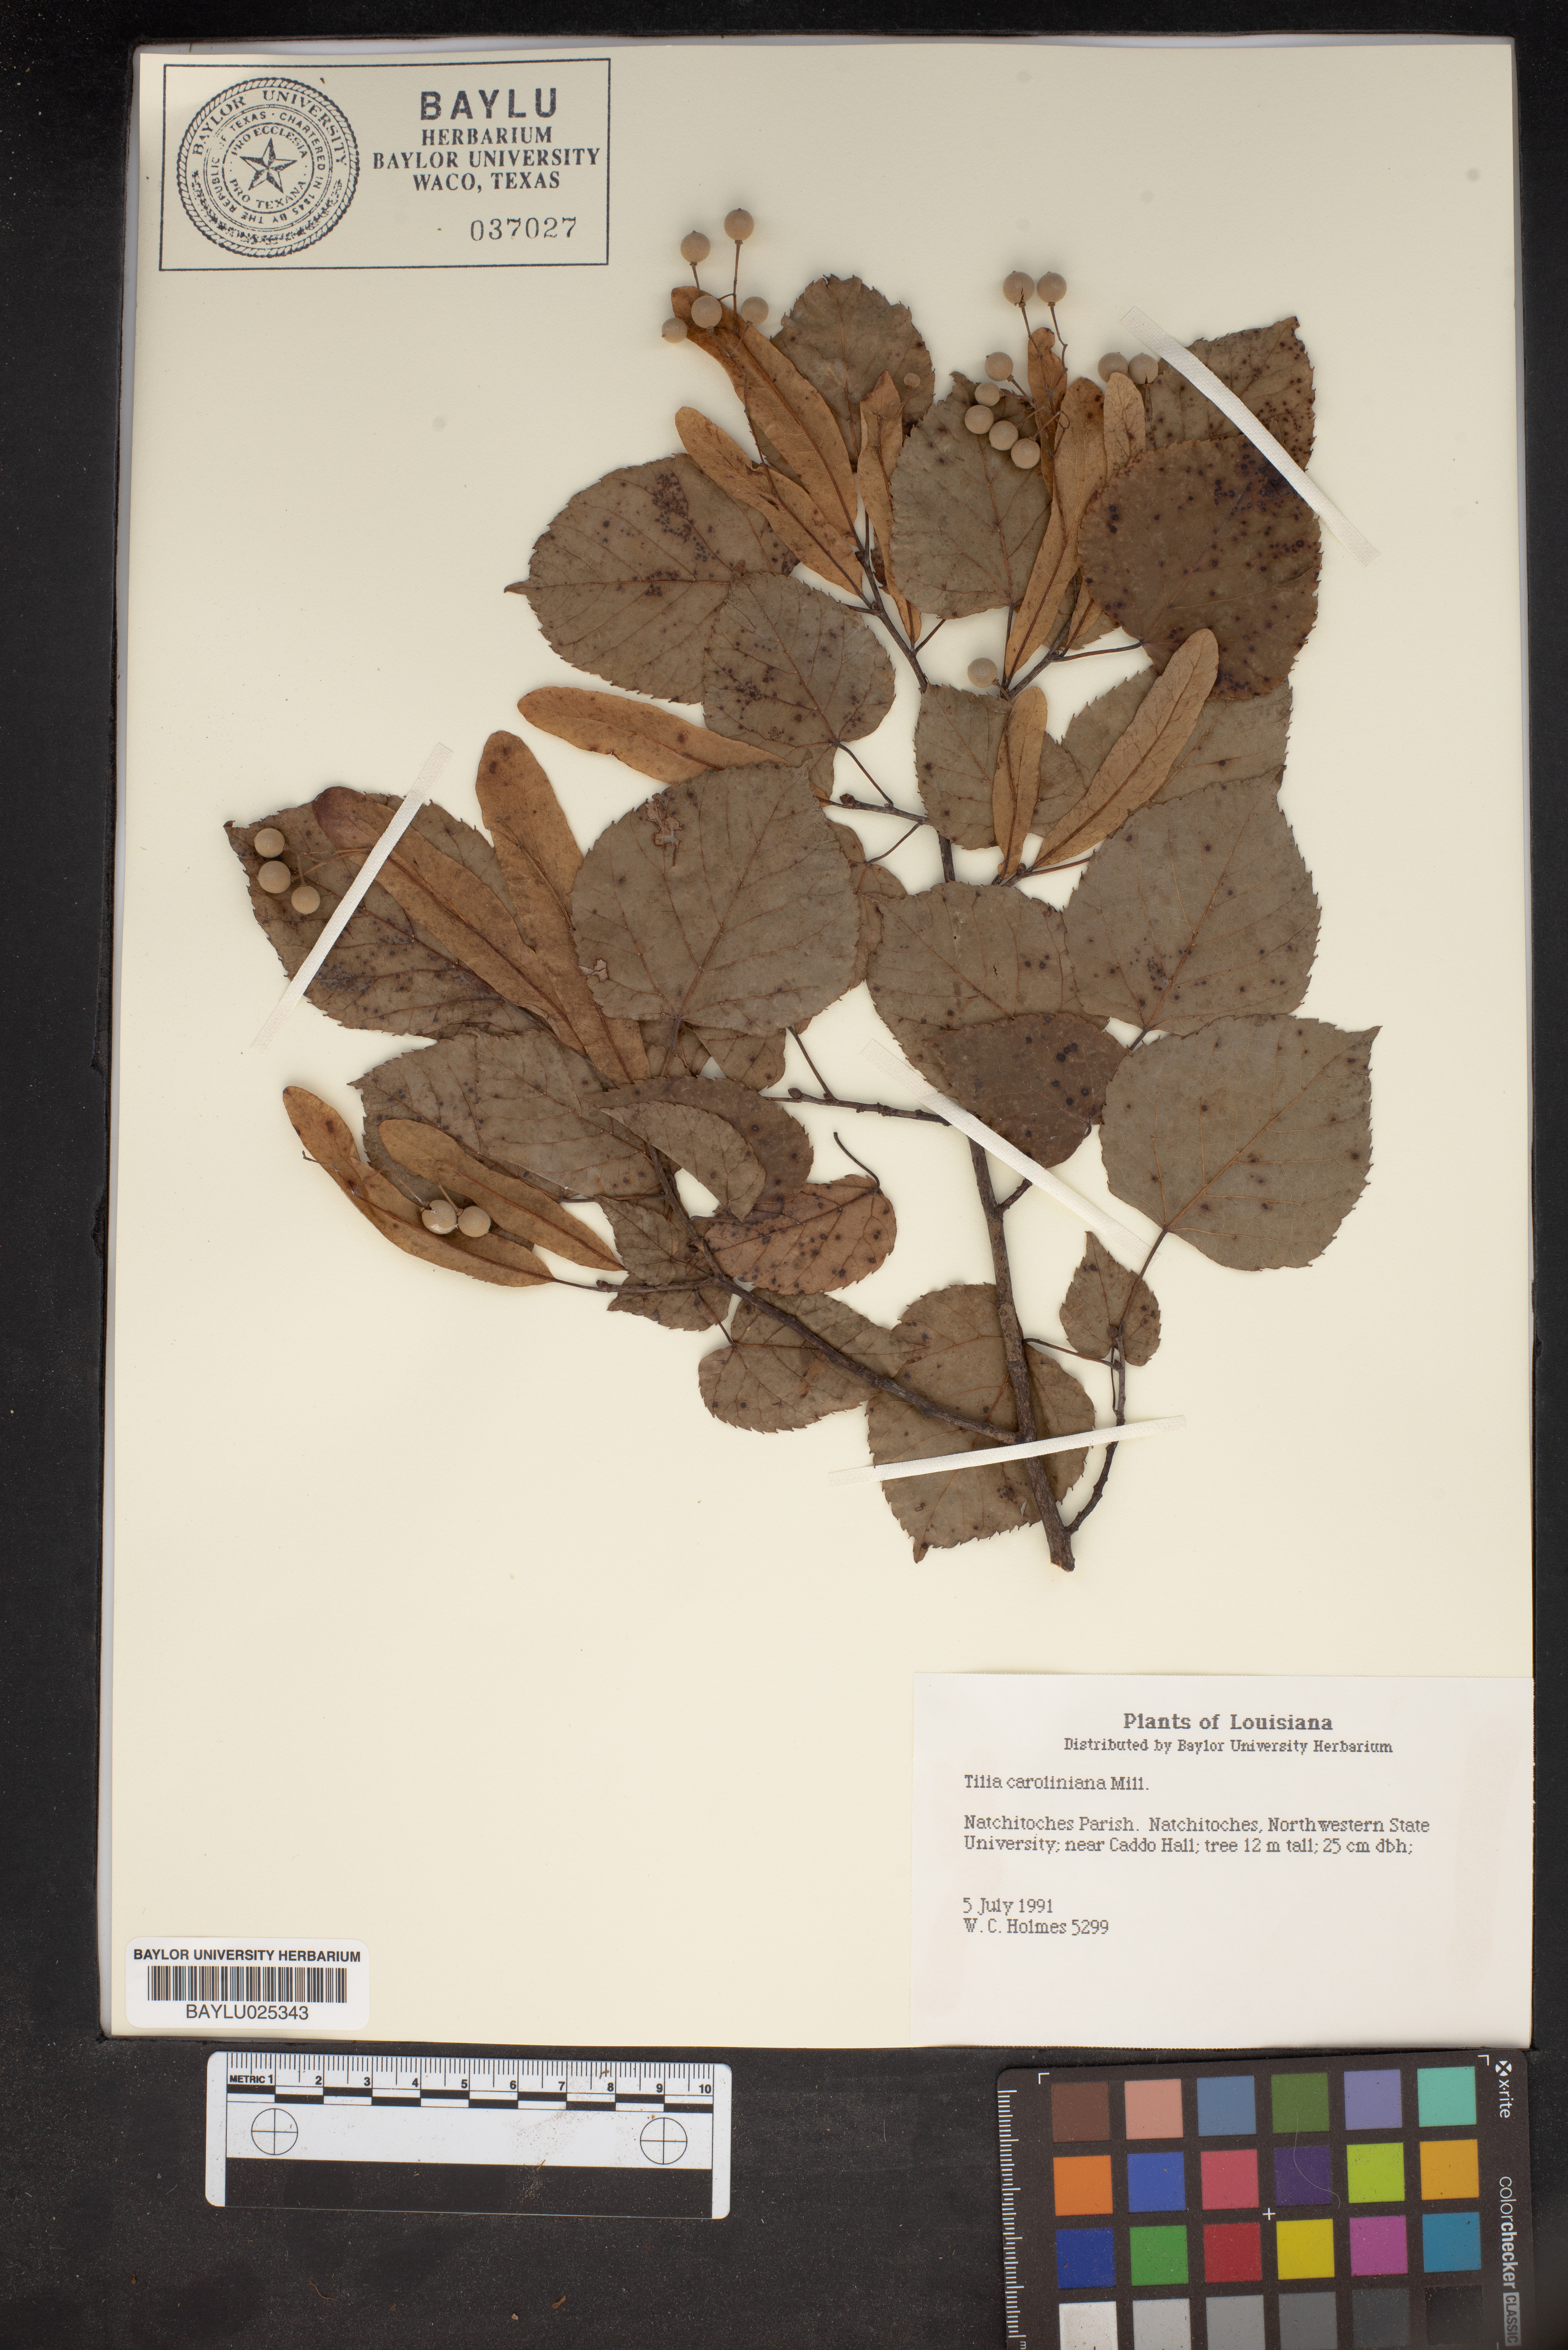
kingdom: Plantae
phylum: Tracheophyta
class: Magnoliopsida
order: Malvales
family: Malvaceae
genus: Tilia
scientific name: Tilia americana
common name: Basswood
